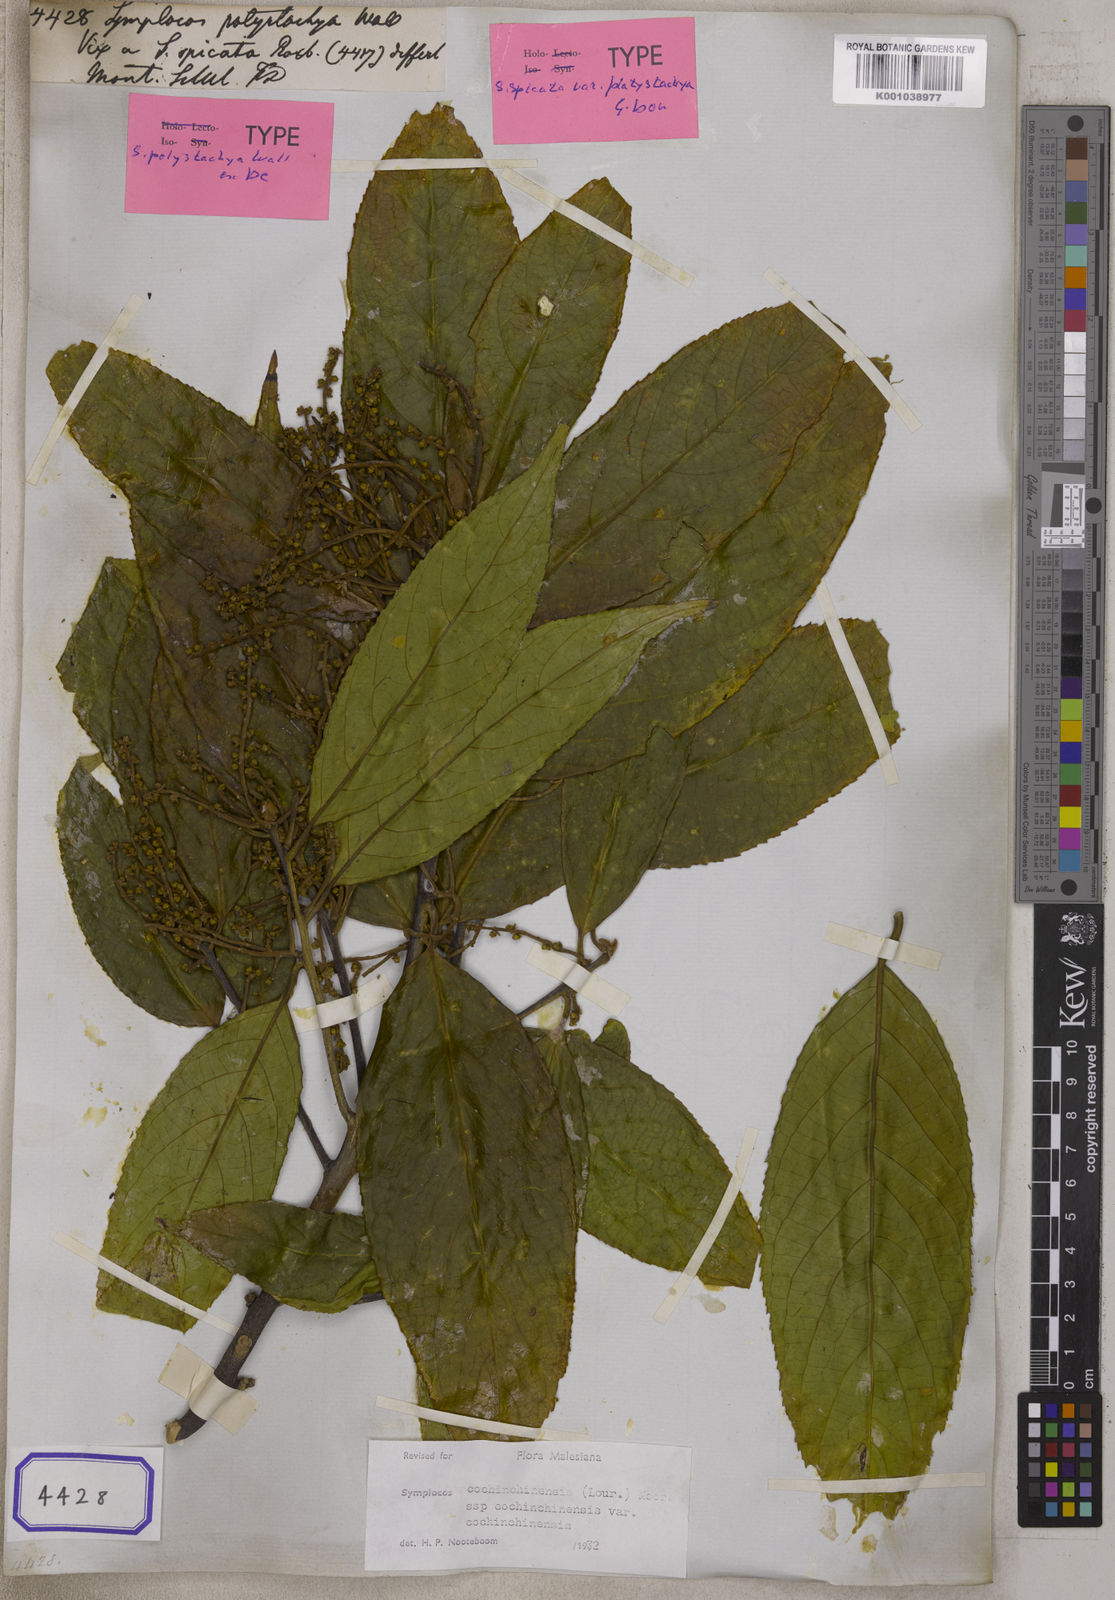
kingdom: Plantae
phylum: Tracheophyta
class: Magnoliopsida
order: Ericales
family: Symplocaceae
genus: Symplocos
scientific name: Symplocos cochinchinensis
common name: Buff hazelwood
